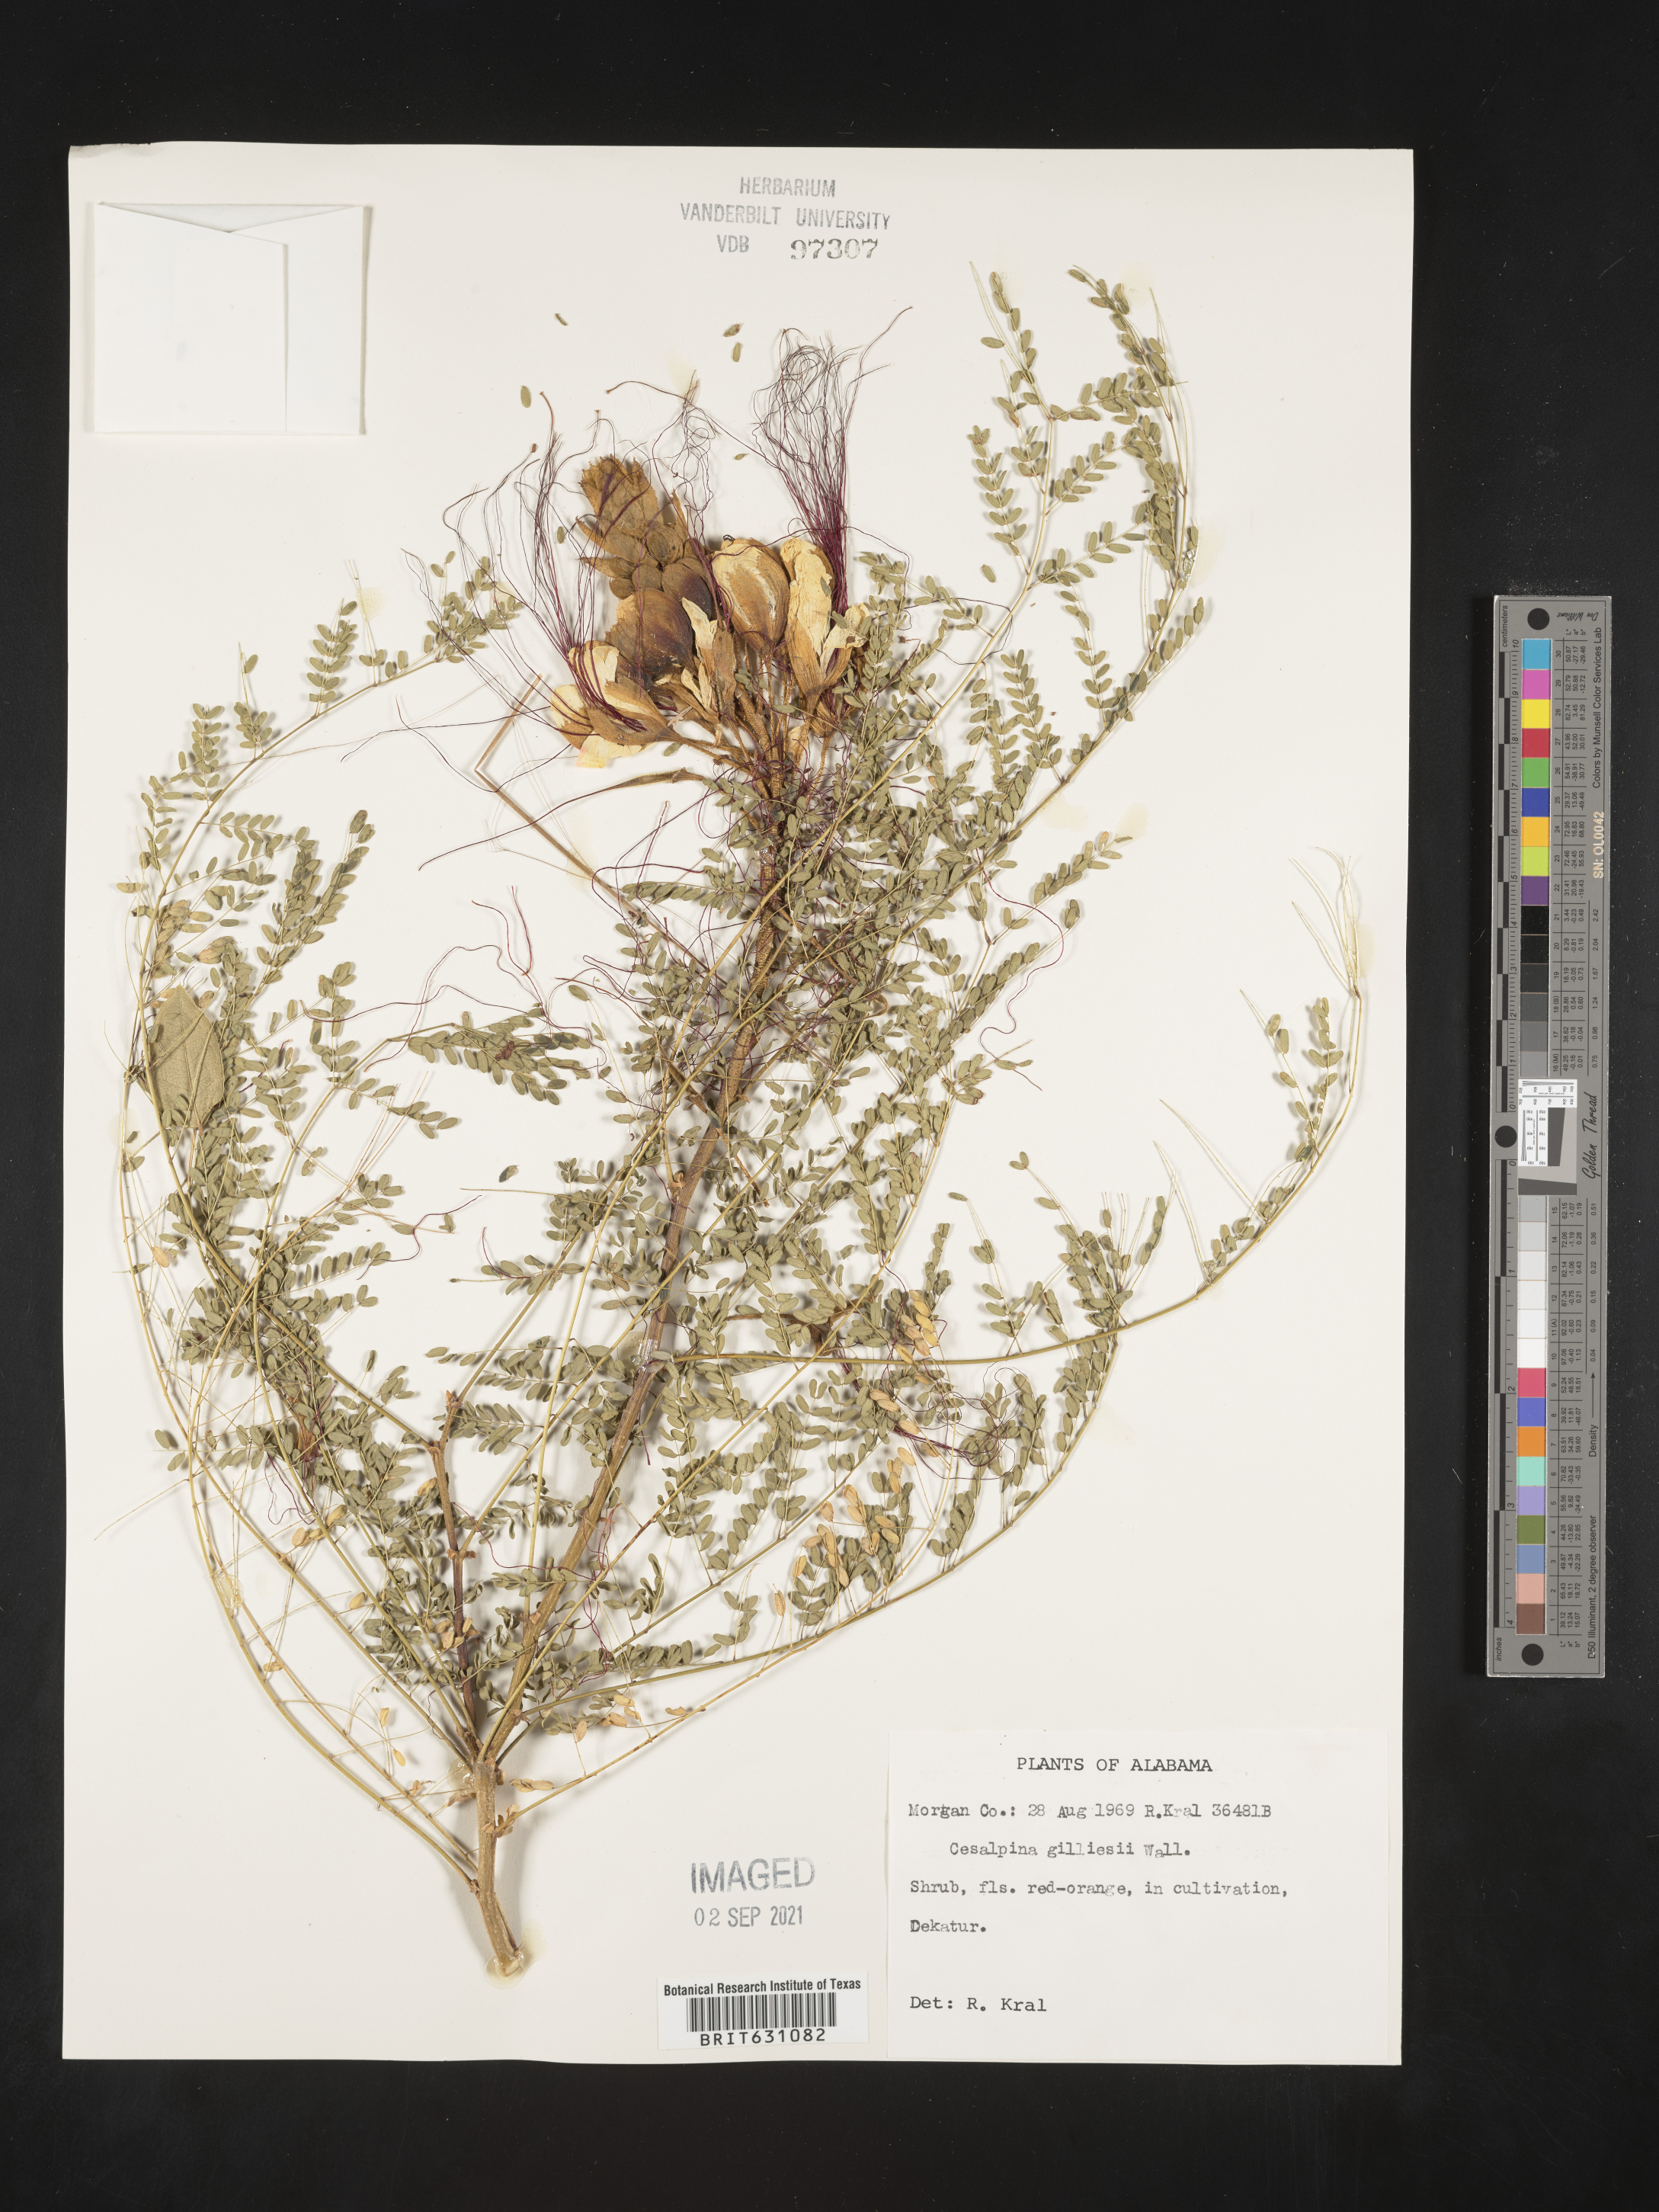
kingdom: Plantae
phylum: Tracheophyta
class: Magnoliopsida
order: Fabales
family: Fabaceae
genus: Caesalpinia
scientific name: Caesalpinia
